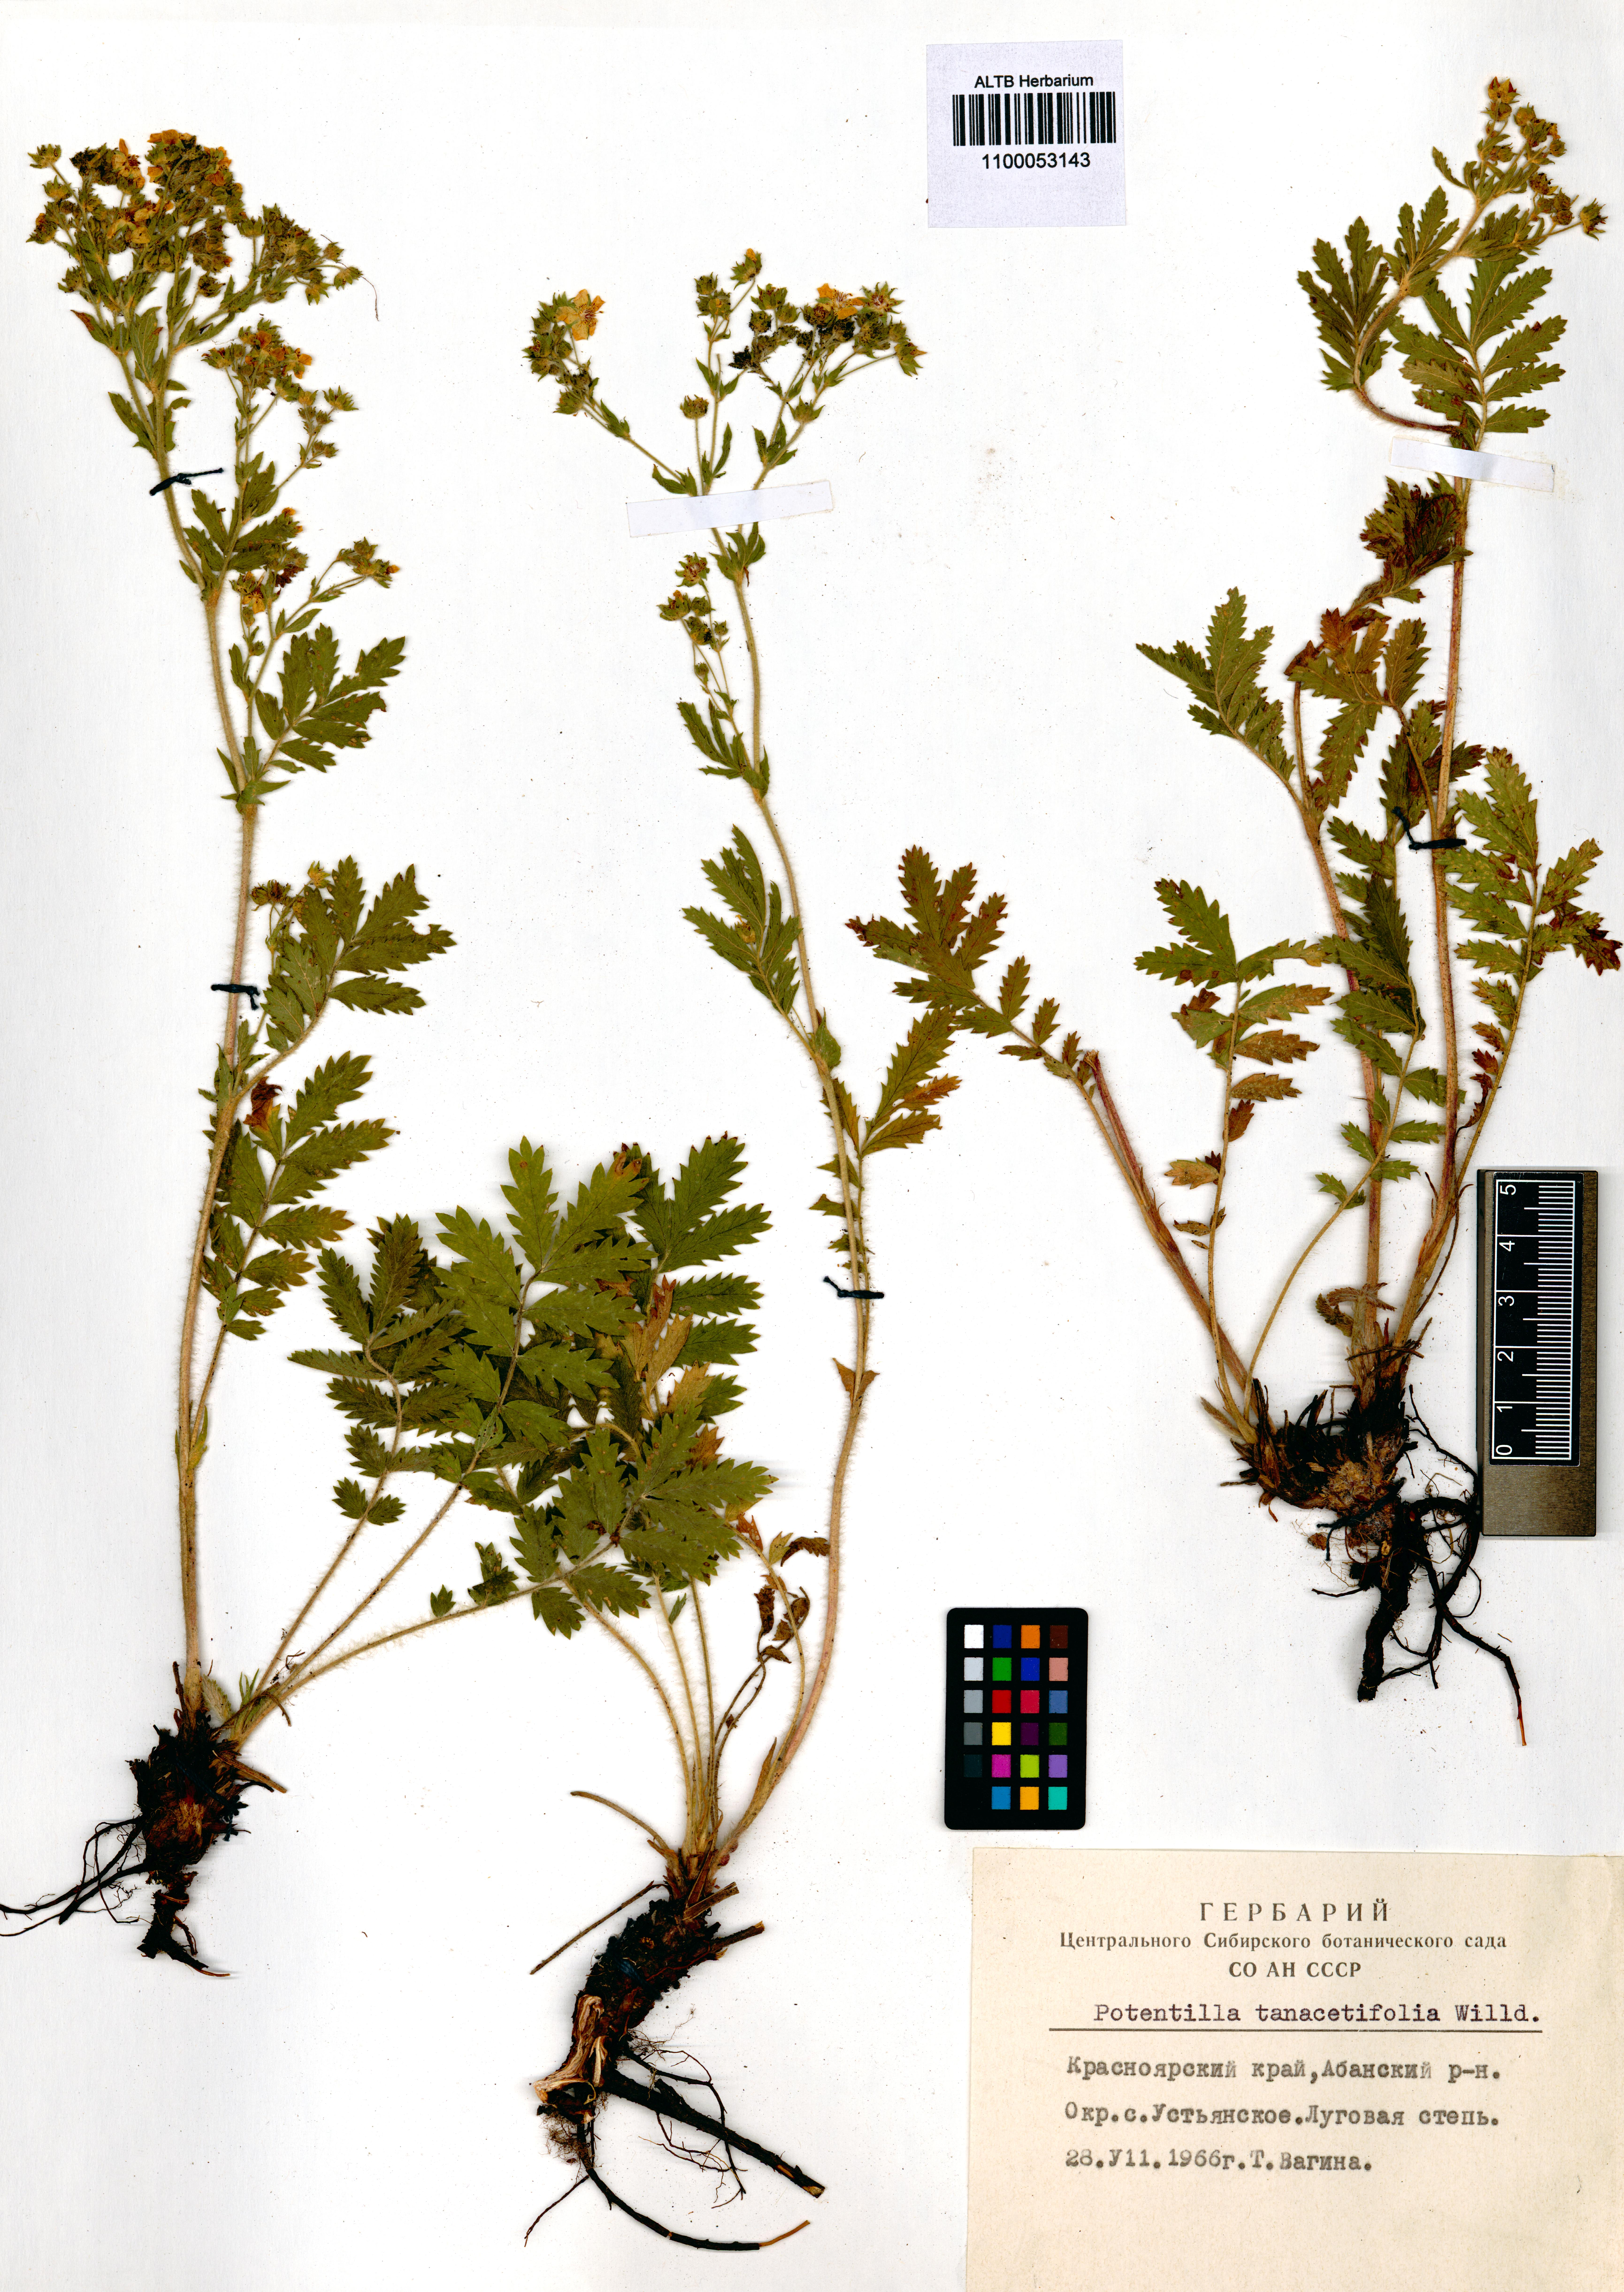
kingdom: Plantae
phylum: Tracheophyta
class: Magnoliopsida
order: Rosales
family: Rosaceae
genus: Potentilla
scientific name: Potentilla tanacetifolia
